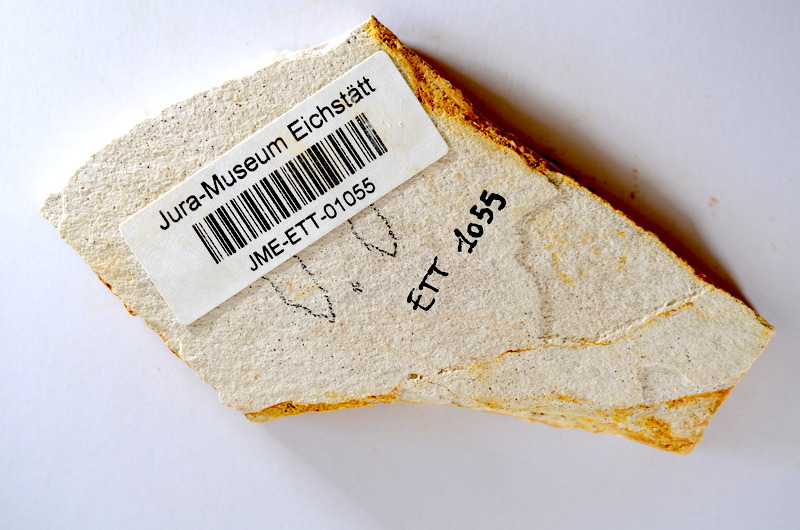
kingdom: Animalia
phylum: Chordata
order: Salmoniformes
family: Orthogonikleithridae
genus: Orthogonikleithrus
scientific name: Orthogonikleithrus hoelli
